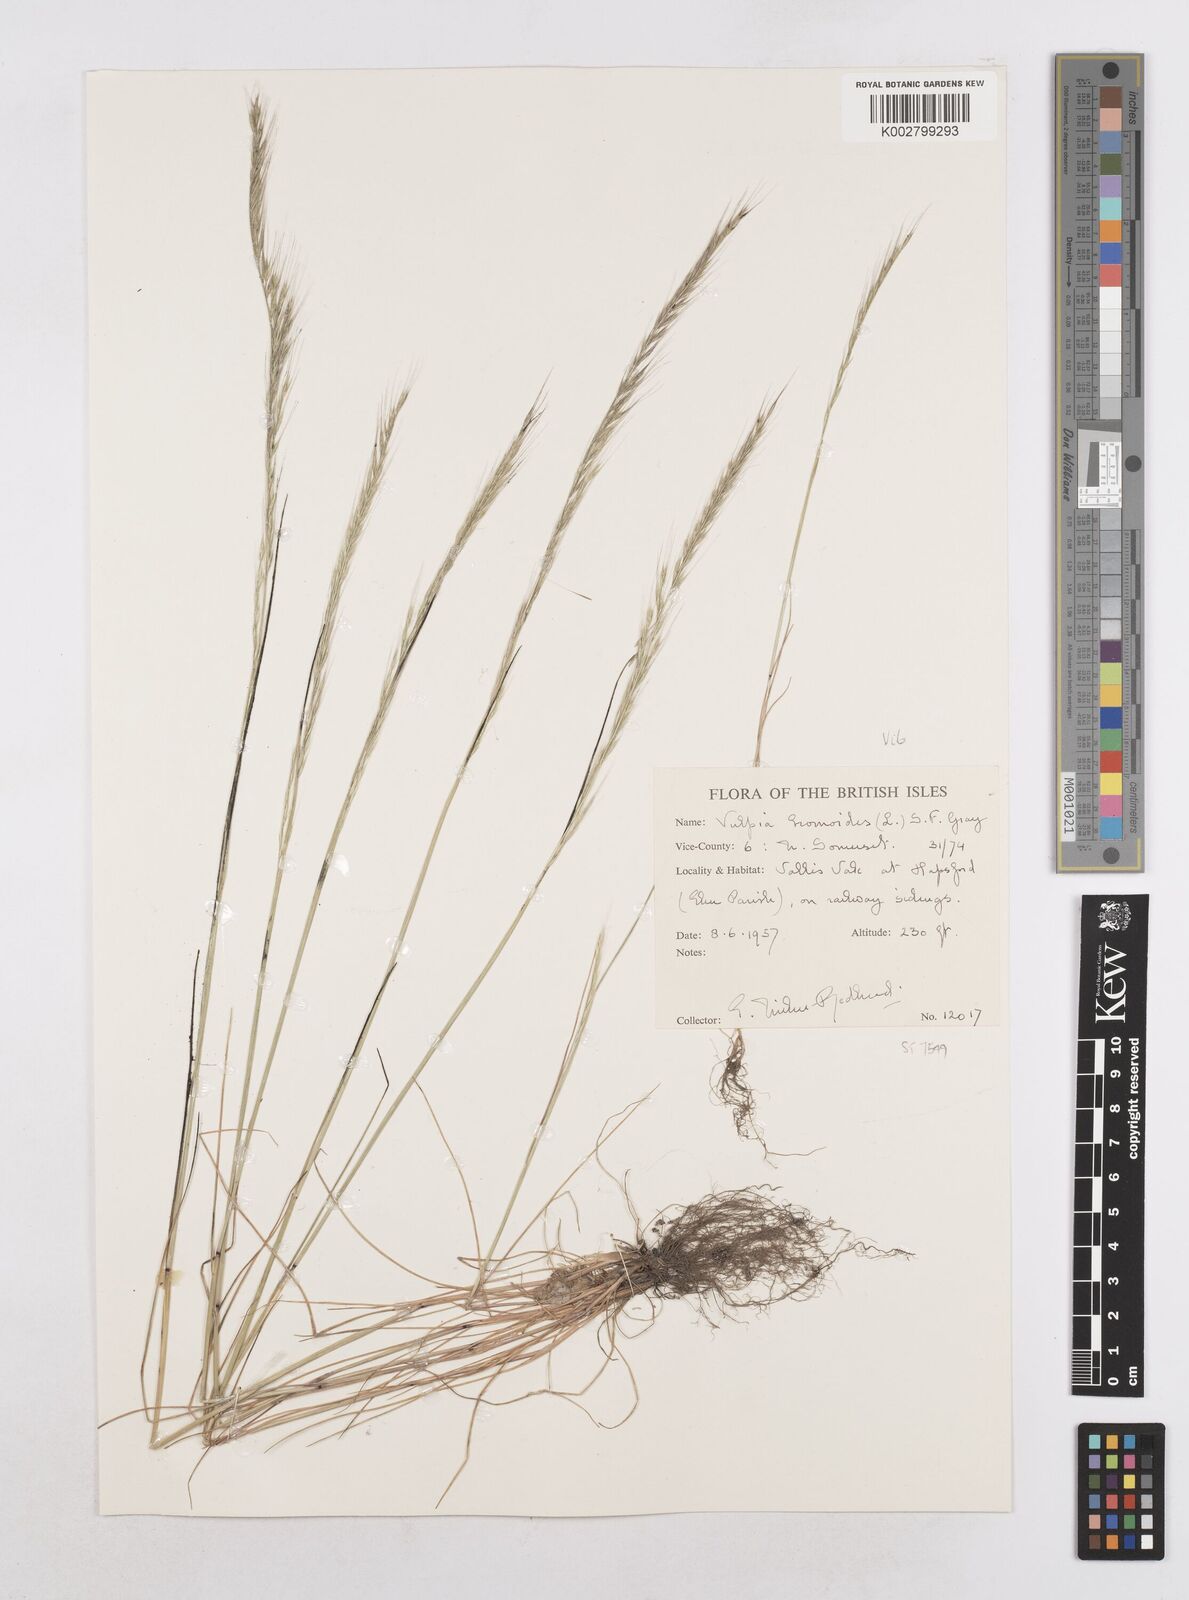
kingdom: Plantae
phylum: Tracheophyta
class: Liliopsida
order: Poales
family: Poaceae
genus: Festuca
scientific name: Festuca myuros
